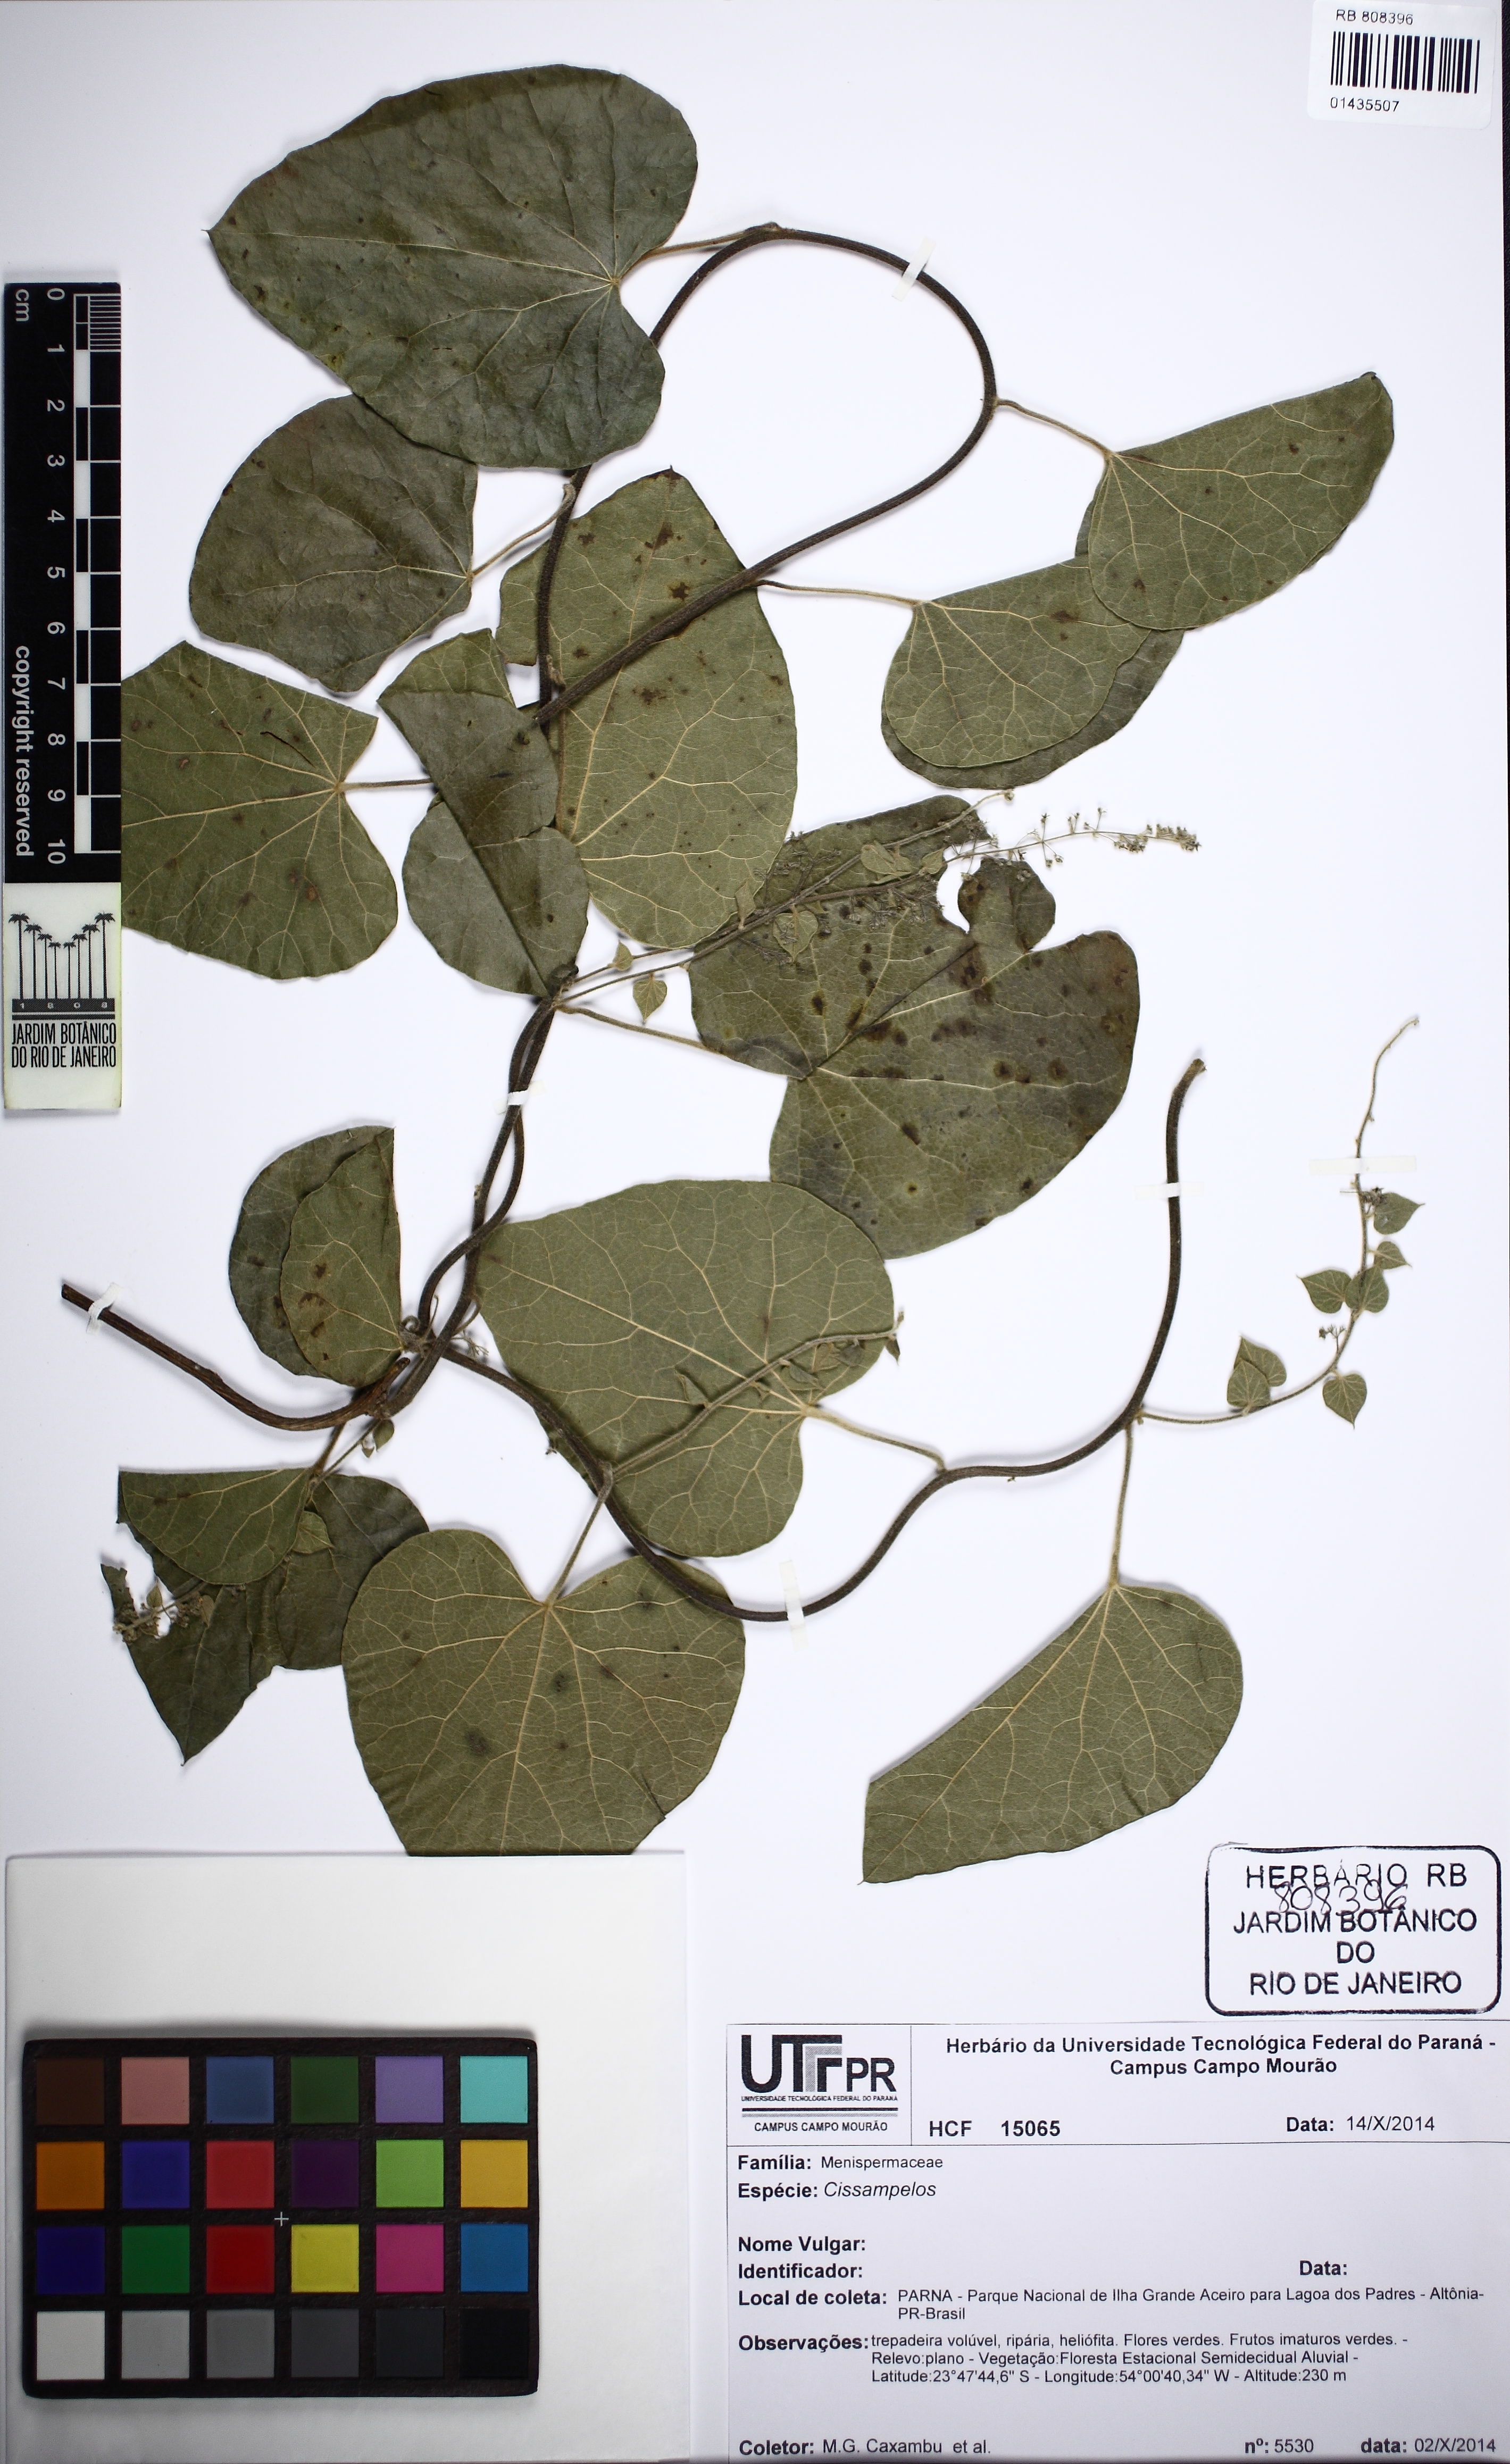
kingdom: Plantae
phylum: Tracheophyta
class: Magnoliopsida
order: Ranunculales
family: Menispermaceae
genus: Cissampelos
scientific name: Cissampelos
